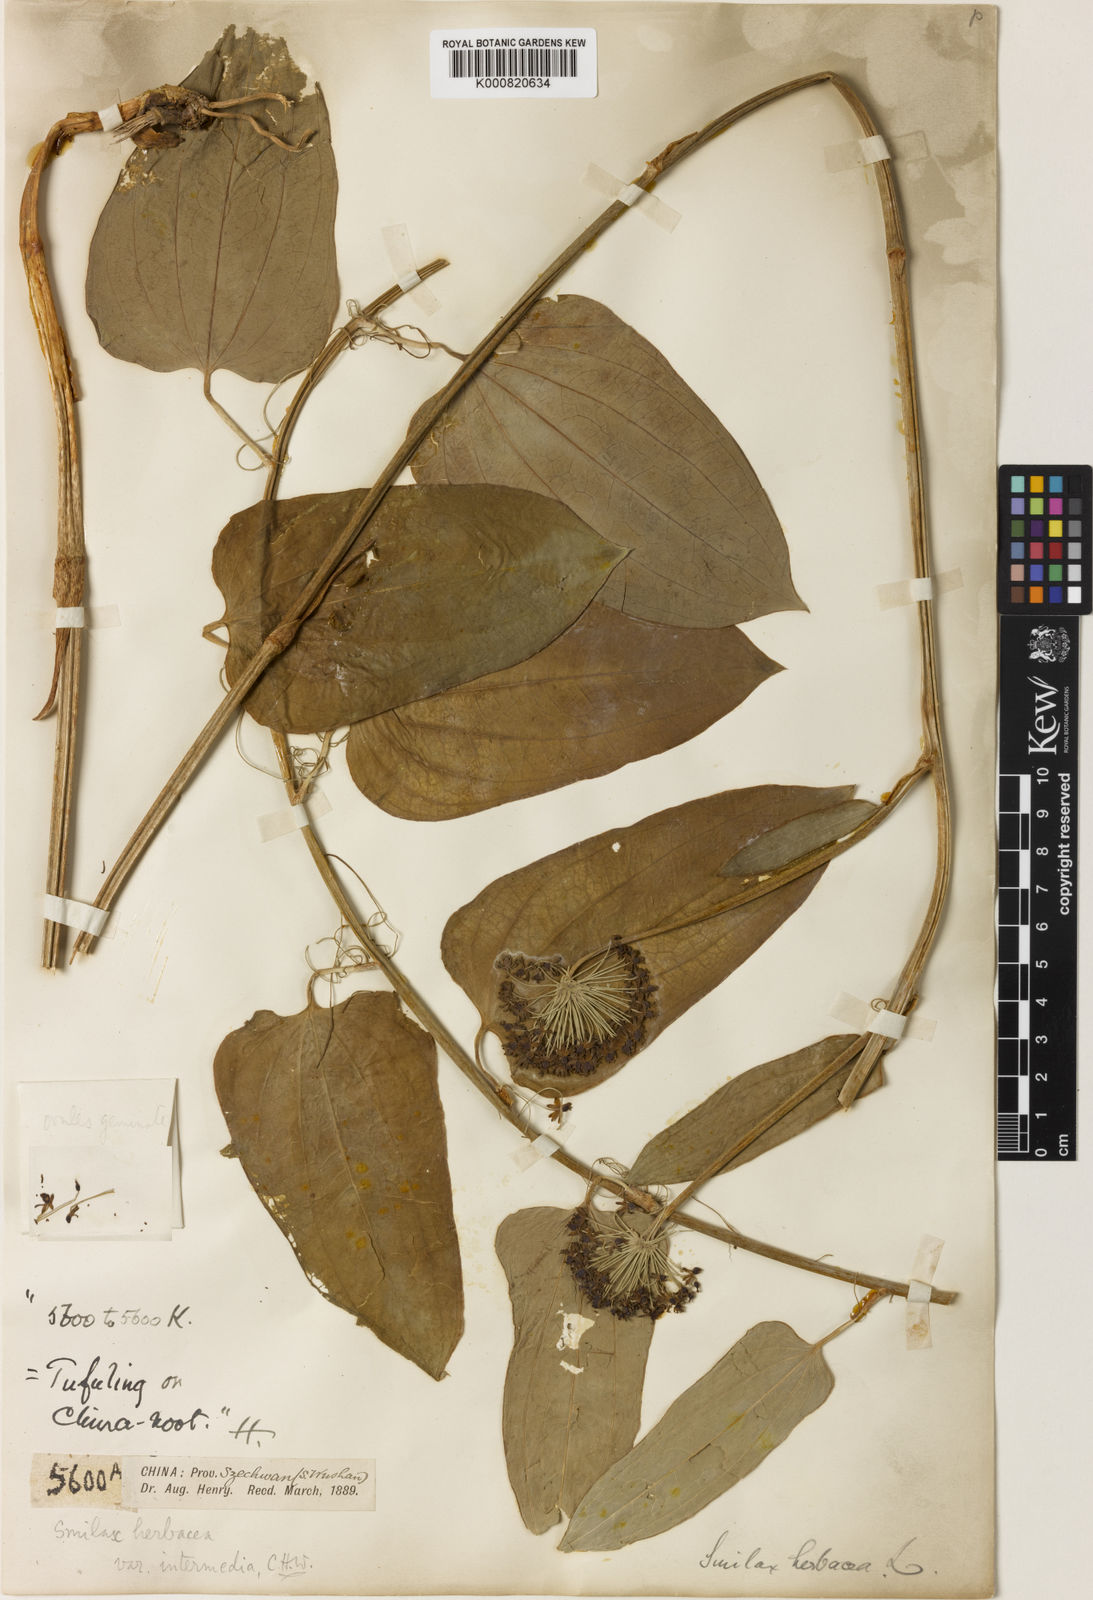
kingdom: Plantae
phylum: Tracheophyta
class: Liliopsida
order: Liliales
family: Smilacaceae
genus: Smilax
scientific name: Smilax nipponica
